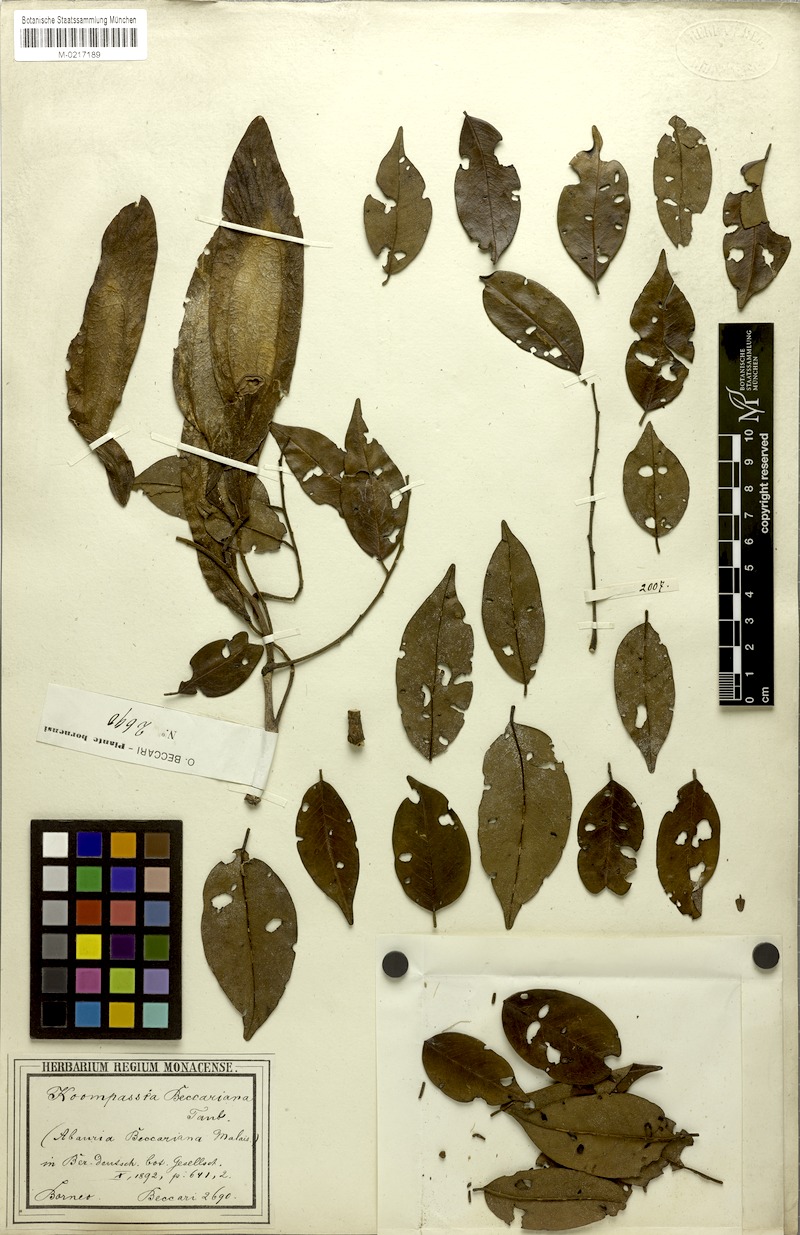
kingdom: Plantae
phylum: Tracheophyta
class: Magnoliopsida
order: Fabales
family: Fabaceae
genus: Koompassia
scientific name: Koompassia malaccensis
